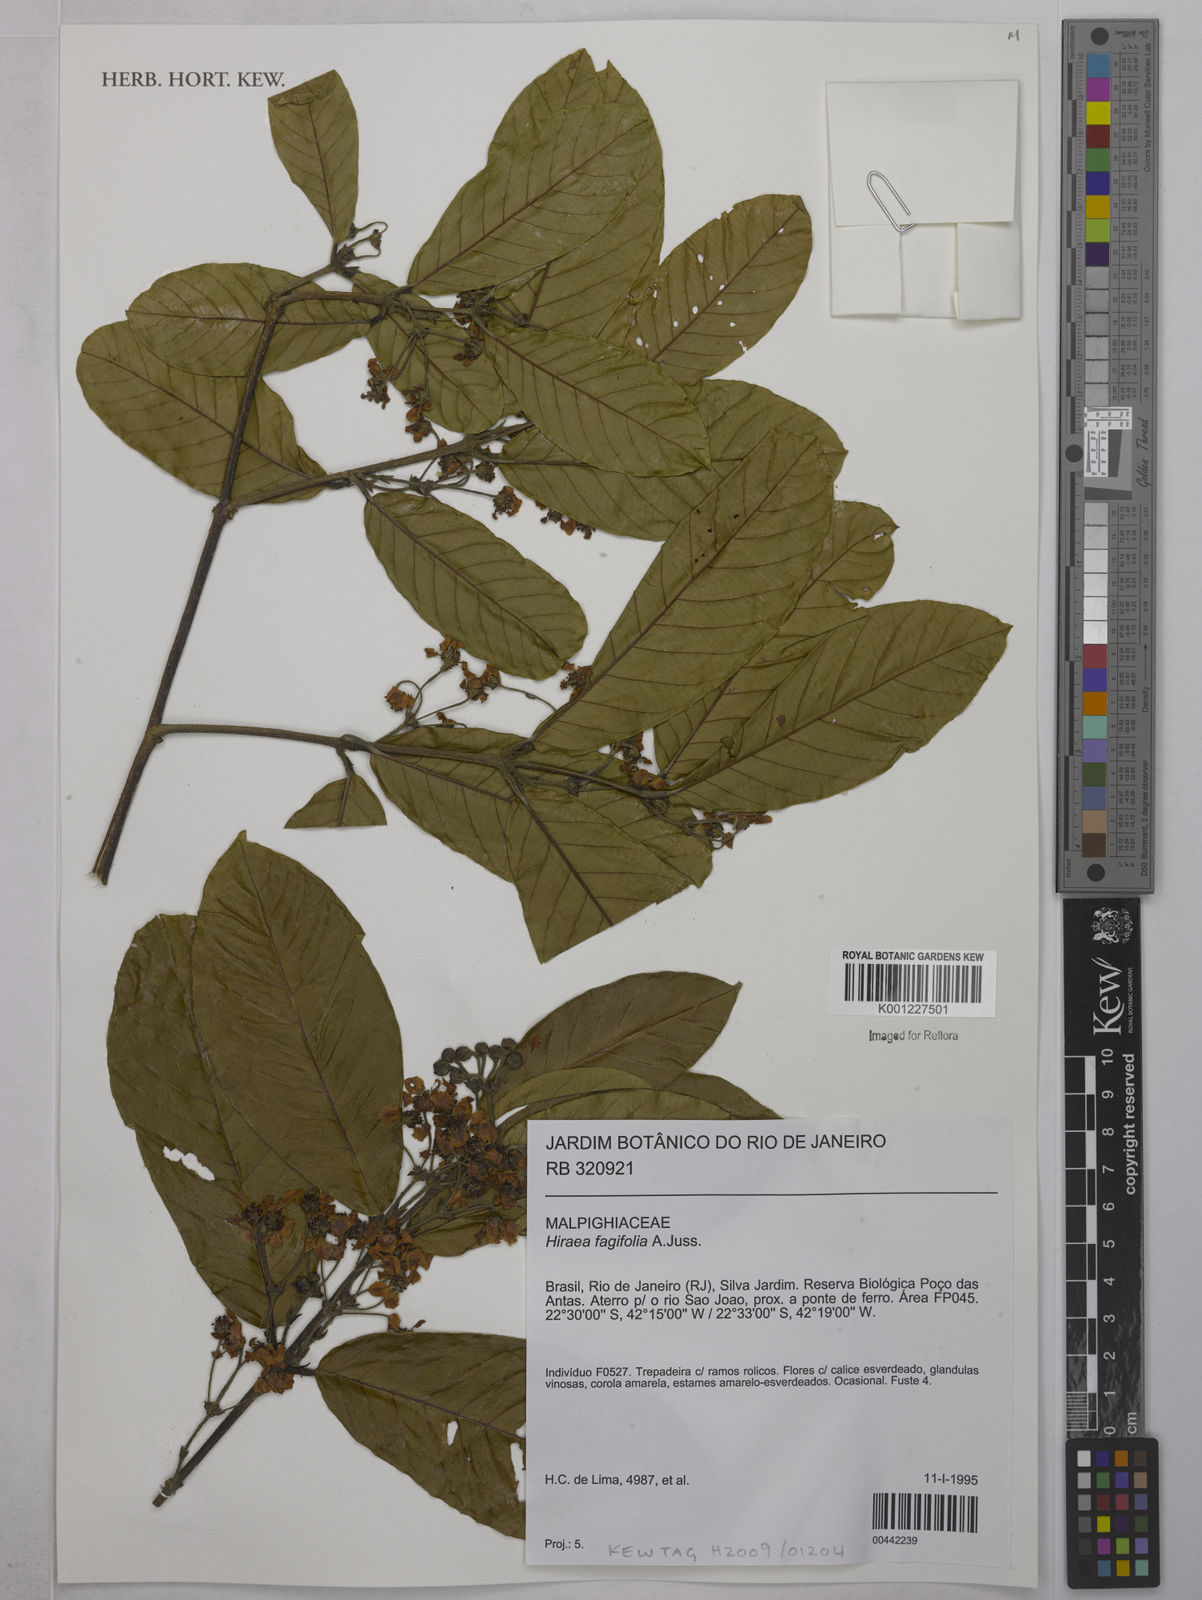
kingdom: Plantae
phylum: Tracheophyta
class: Magnoliopsida
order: Malpighiales
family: Malpighiaceae
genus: Hiraea
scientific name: Hiraea fagifolia
